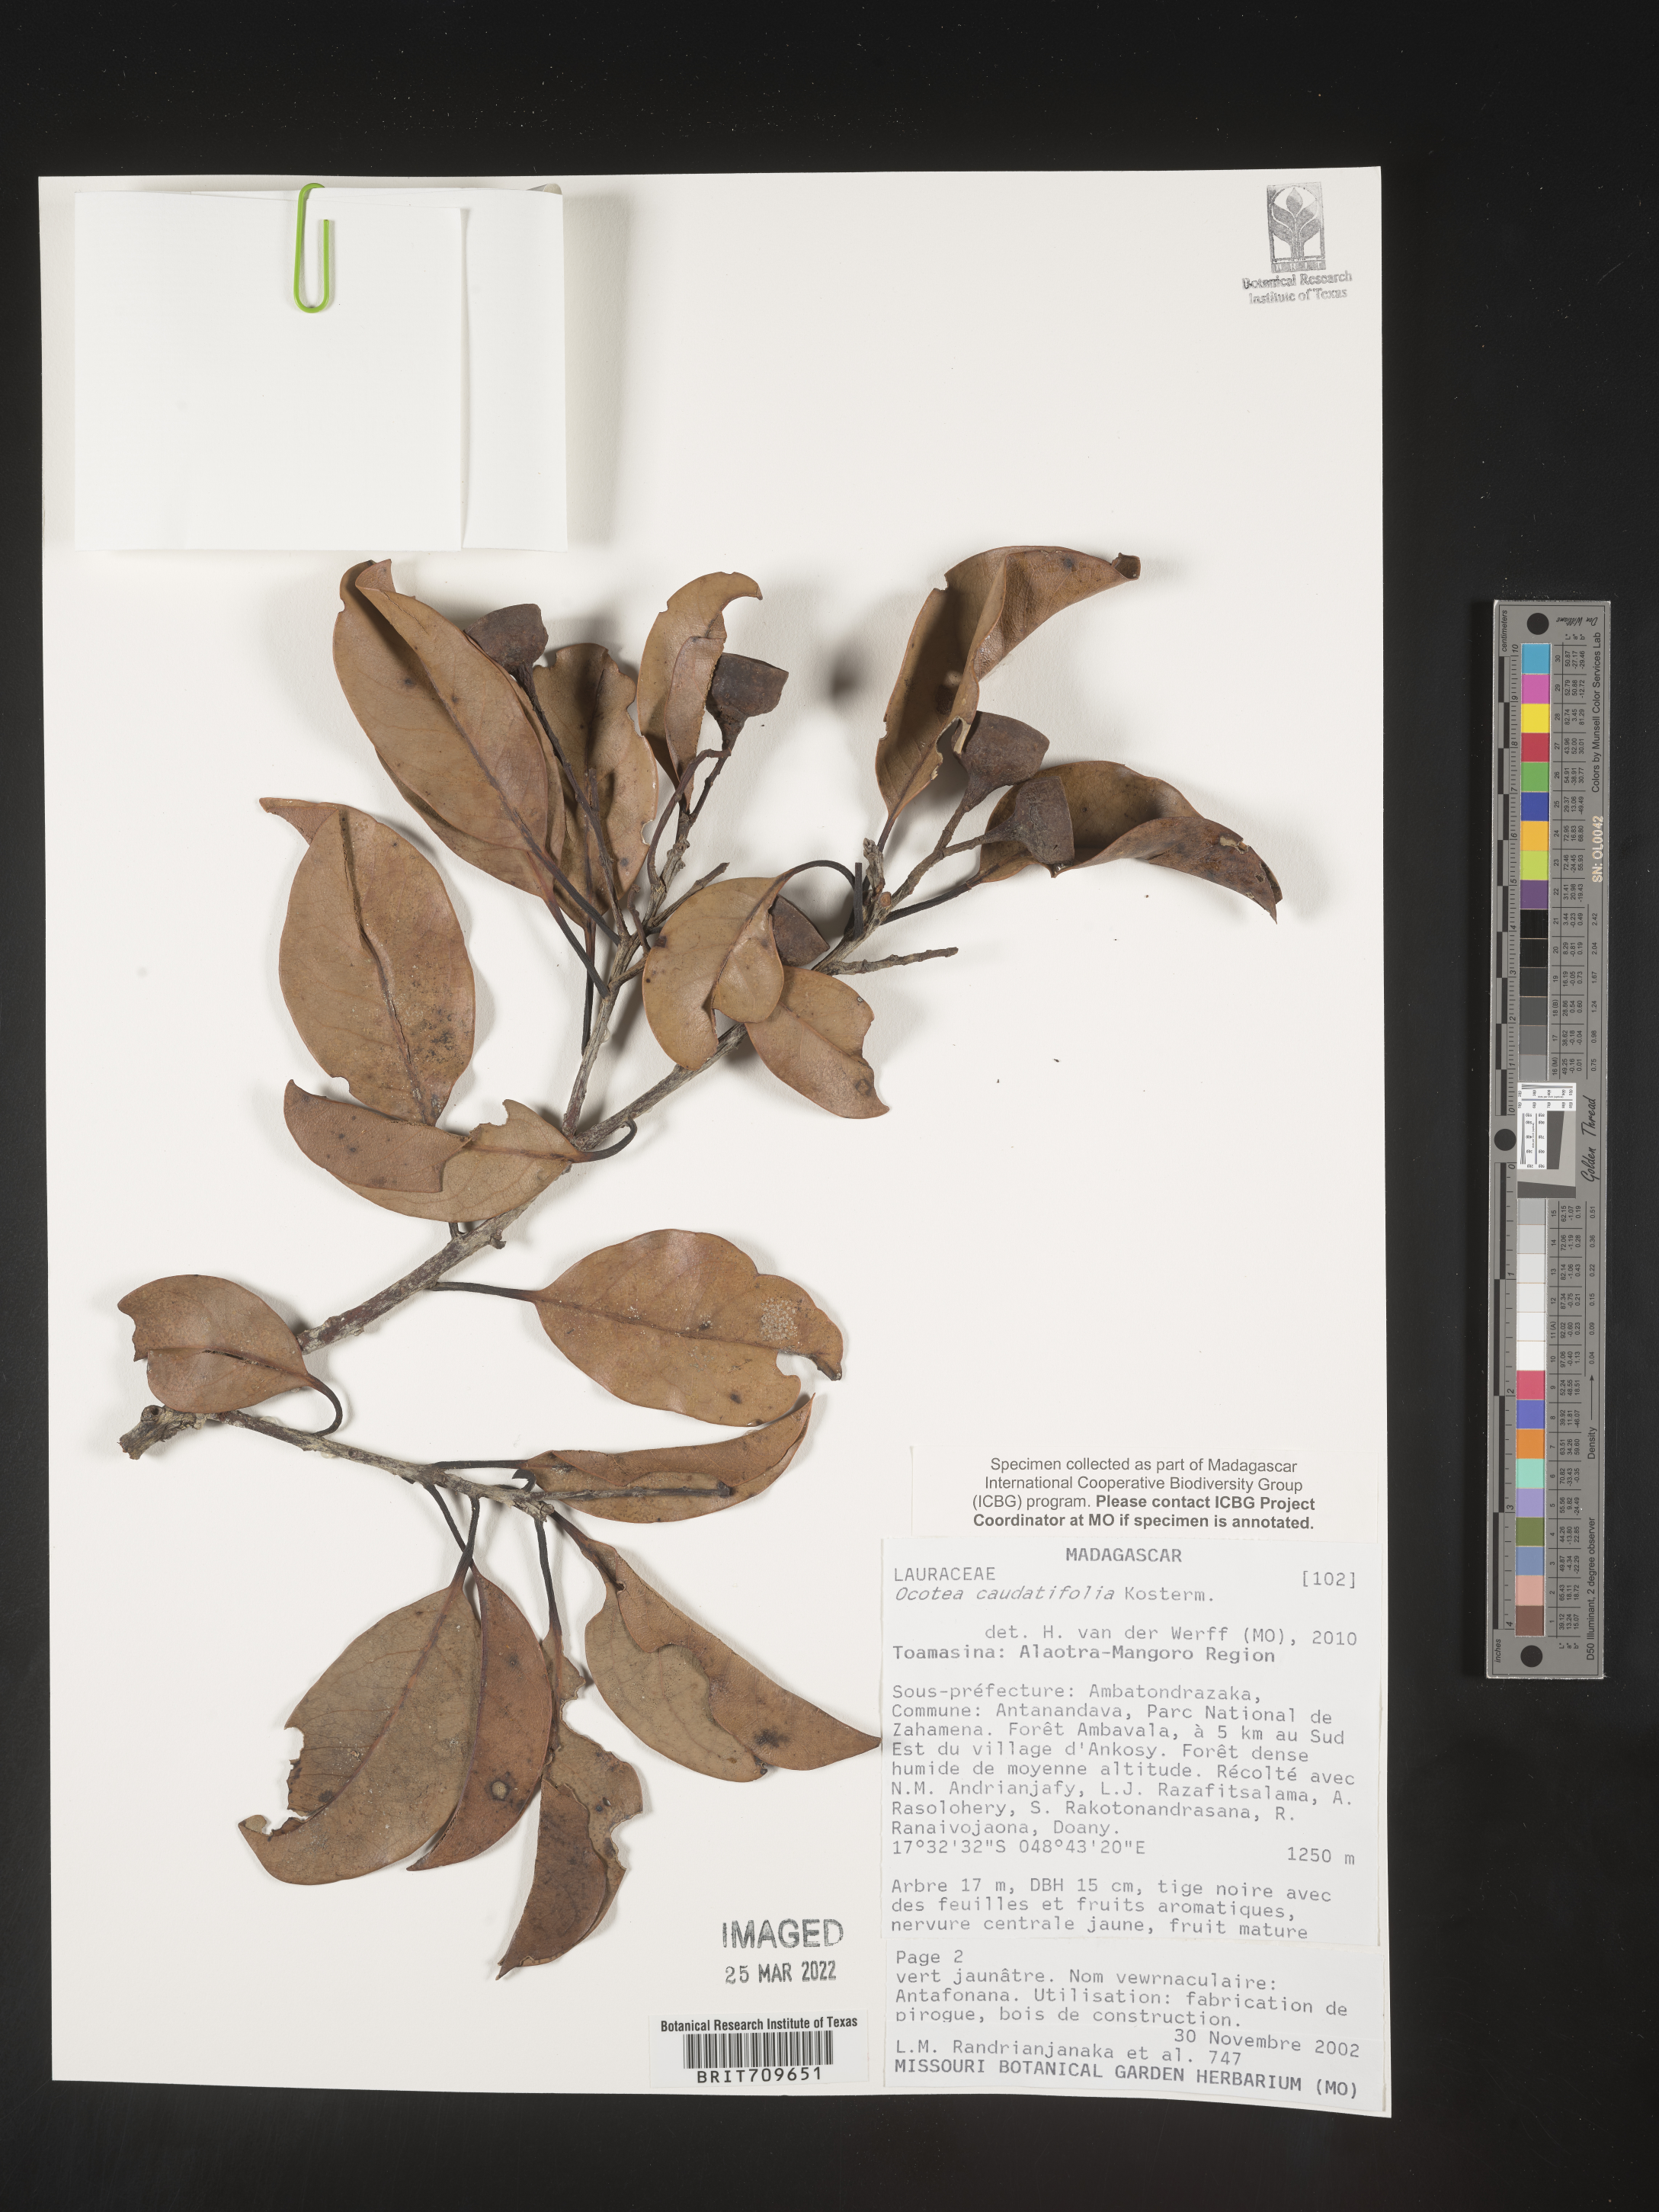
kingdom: Plantae
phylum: Tracheophyta
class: Magnoliopsida
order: Laurales
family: Lauraceae
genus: Ocotea
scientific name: Ocotea
